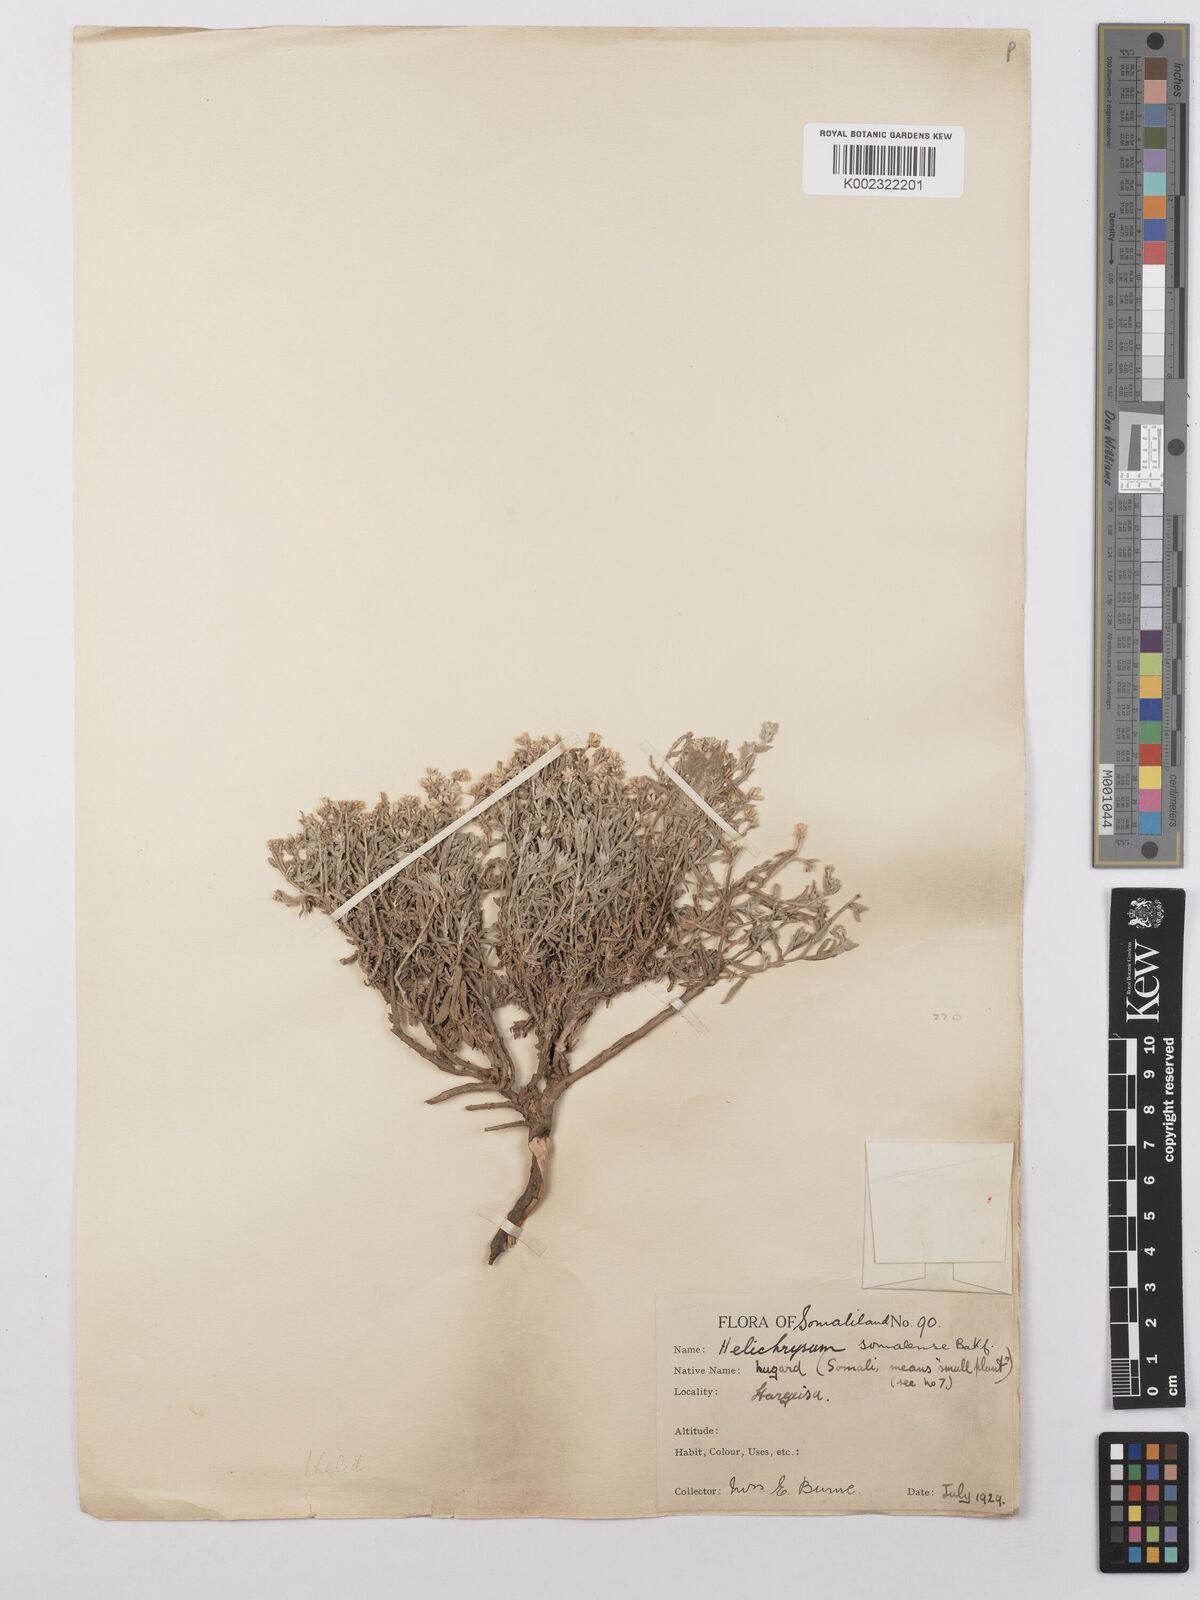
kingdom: Plantae
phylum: Tracheophyta
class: Magnoliopsida
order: Asterales
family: Asteraceae
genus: Helichrysum
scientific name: Helichrysum somalense
